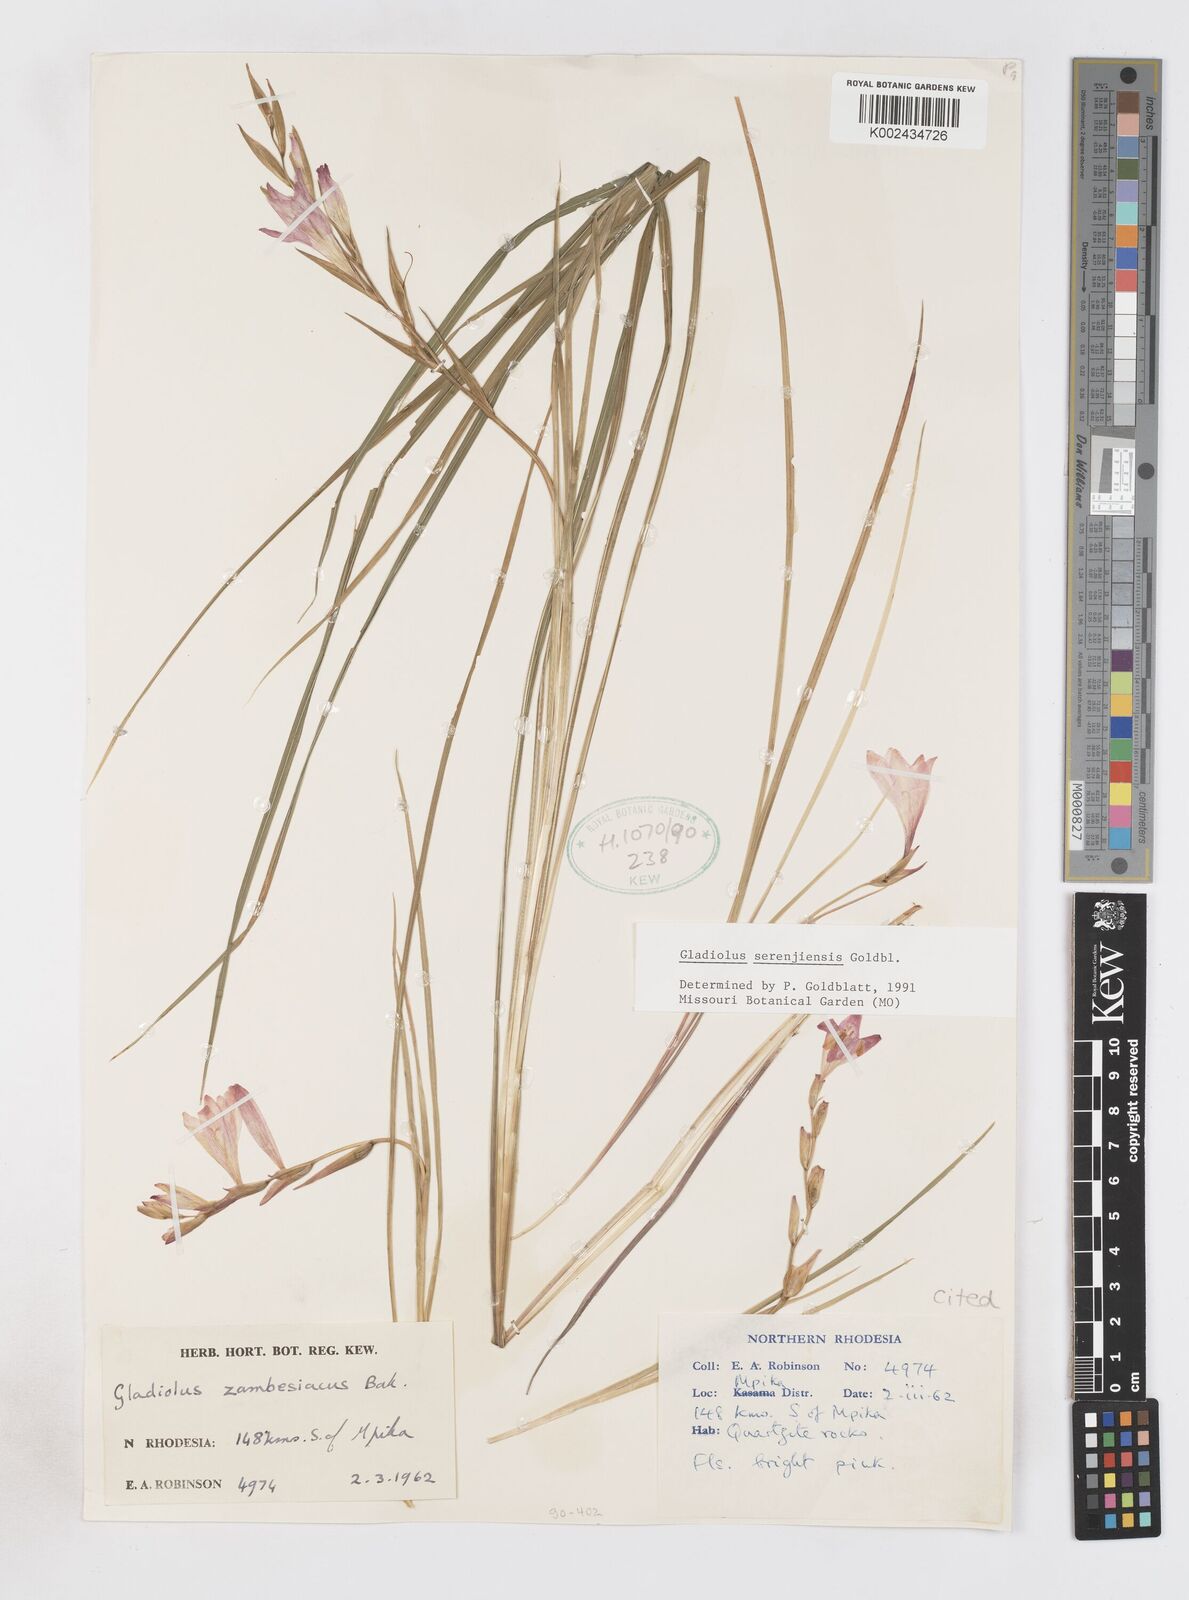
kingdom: Plantae
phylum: Tracheophyta
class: Liliopsida
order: Asparagales
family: Iridaceae
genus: Gladiolus
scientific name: Gladiolus serenjensis
